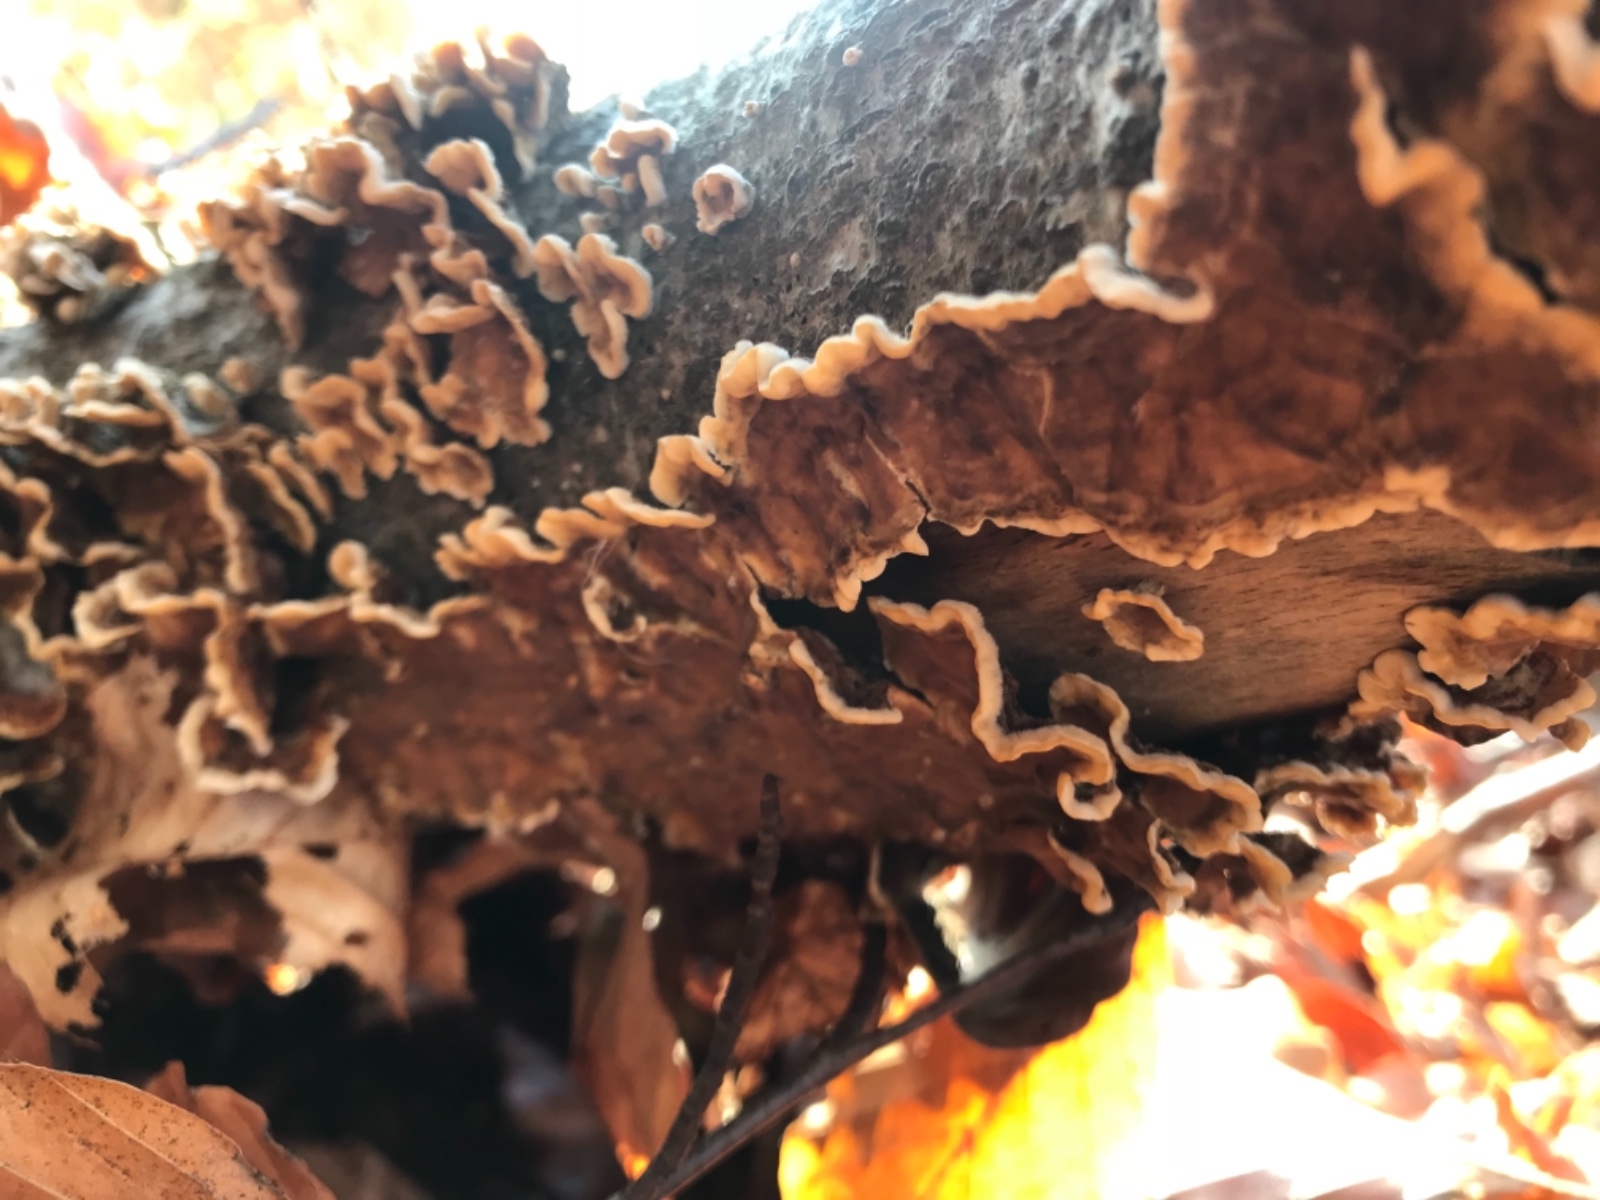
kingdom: Fungi
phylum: Basidiomycota
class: Agaricomycetes
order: Russulales
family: Stereaceae
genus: Stereum
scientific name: Stereum hirsutum
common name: håret lædersvamp
